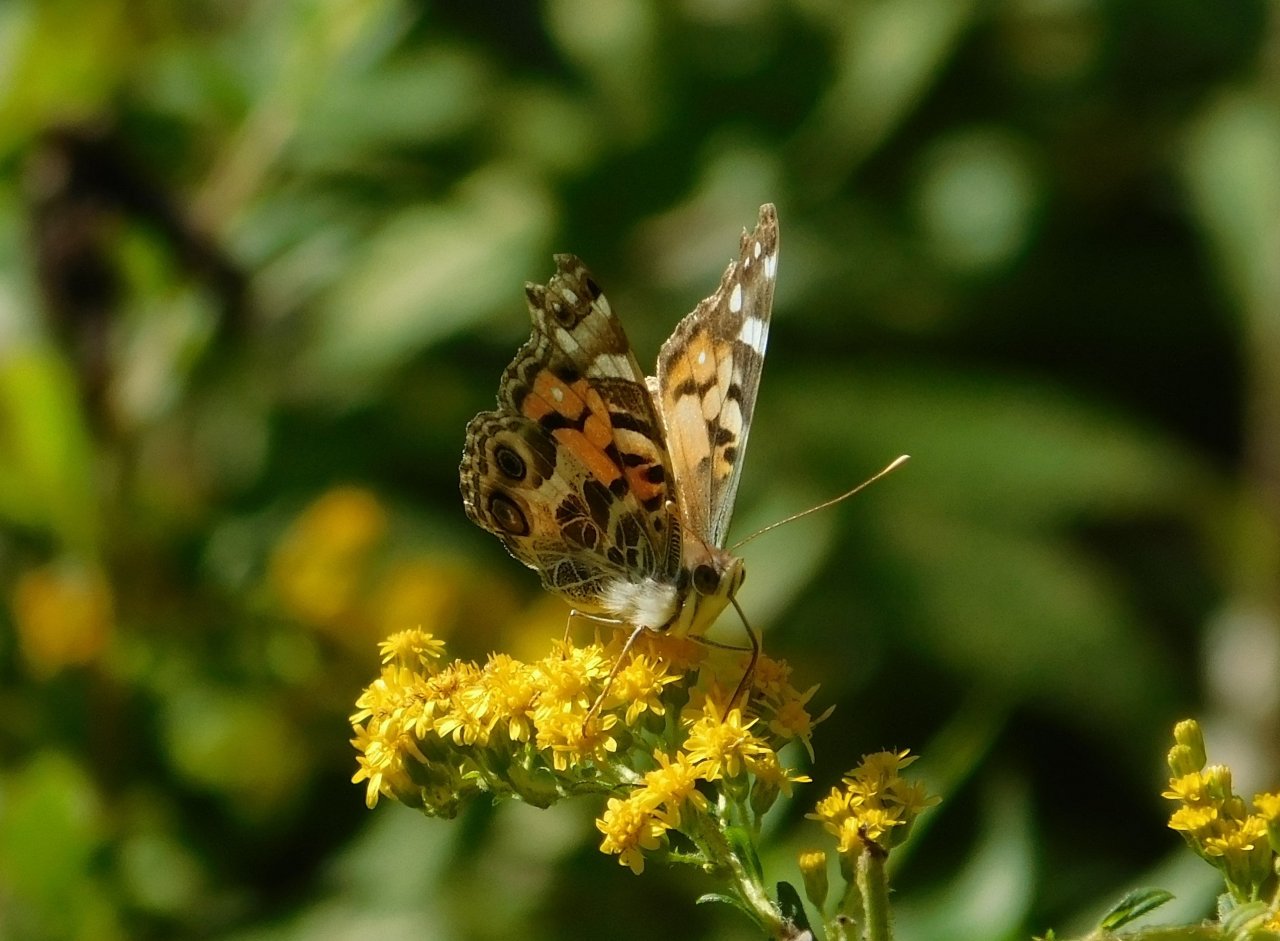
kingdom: Animalia
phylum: Arthropoda
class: Insecta
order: Lepidoptera
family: Nymphalidae
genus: Vanessa
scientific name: Vanessa virginiensis
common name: American Lady
